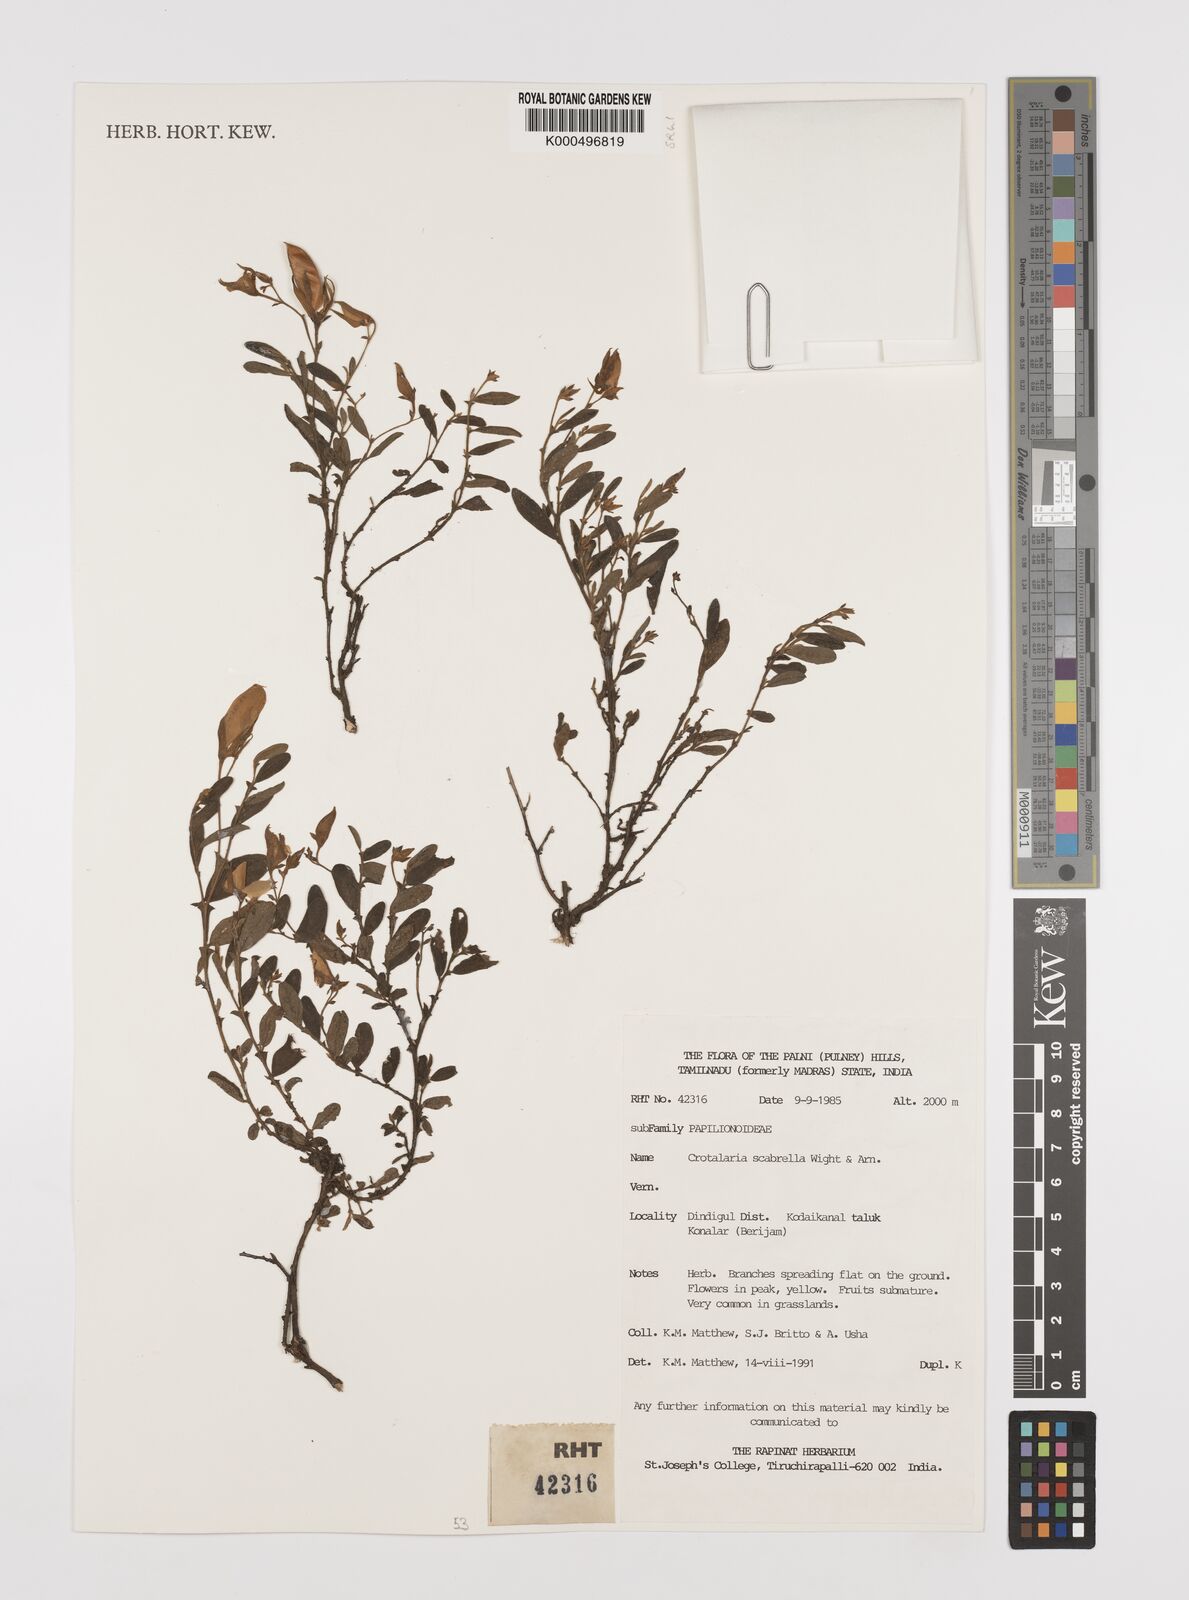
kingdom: Plantae
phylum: Tracheophyta
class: Magnoliopsida
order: Fabales
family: Fabaceae
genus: Crotalaria
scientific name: Crotalaria scabrella
